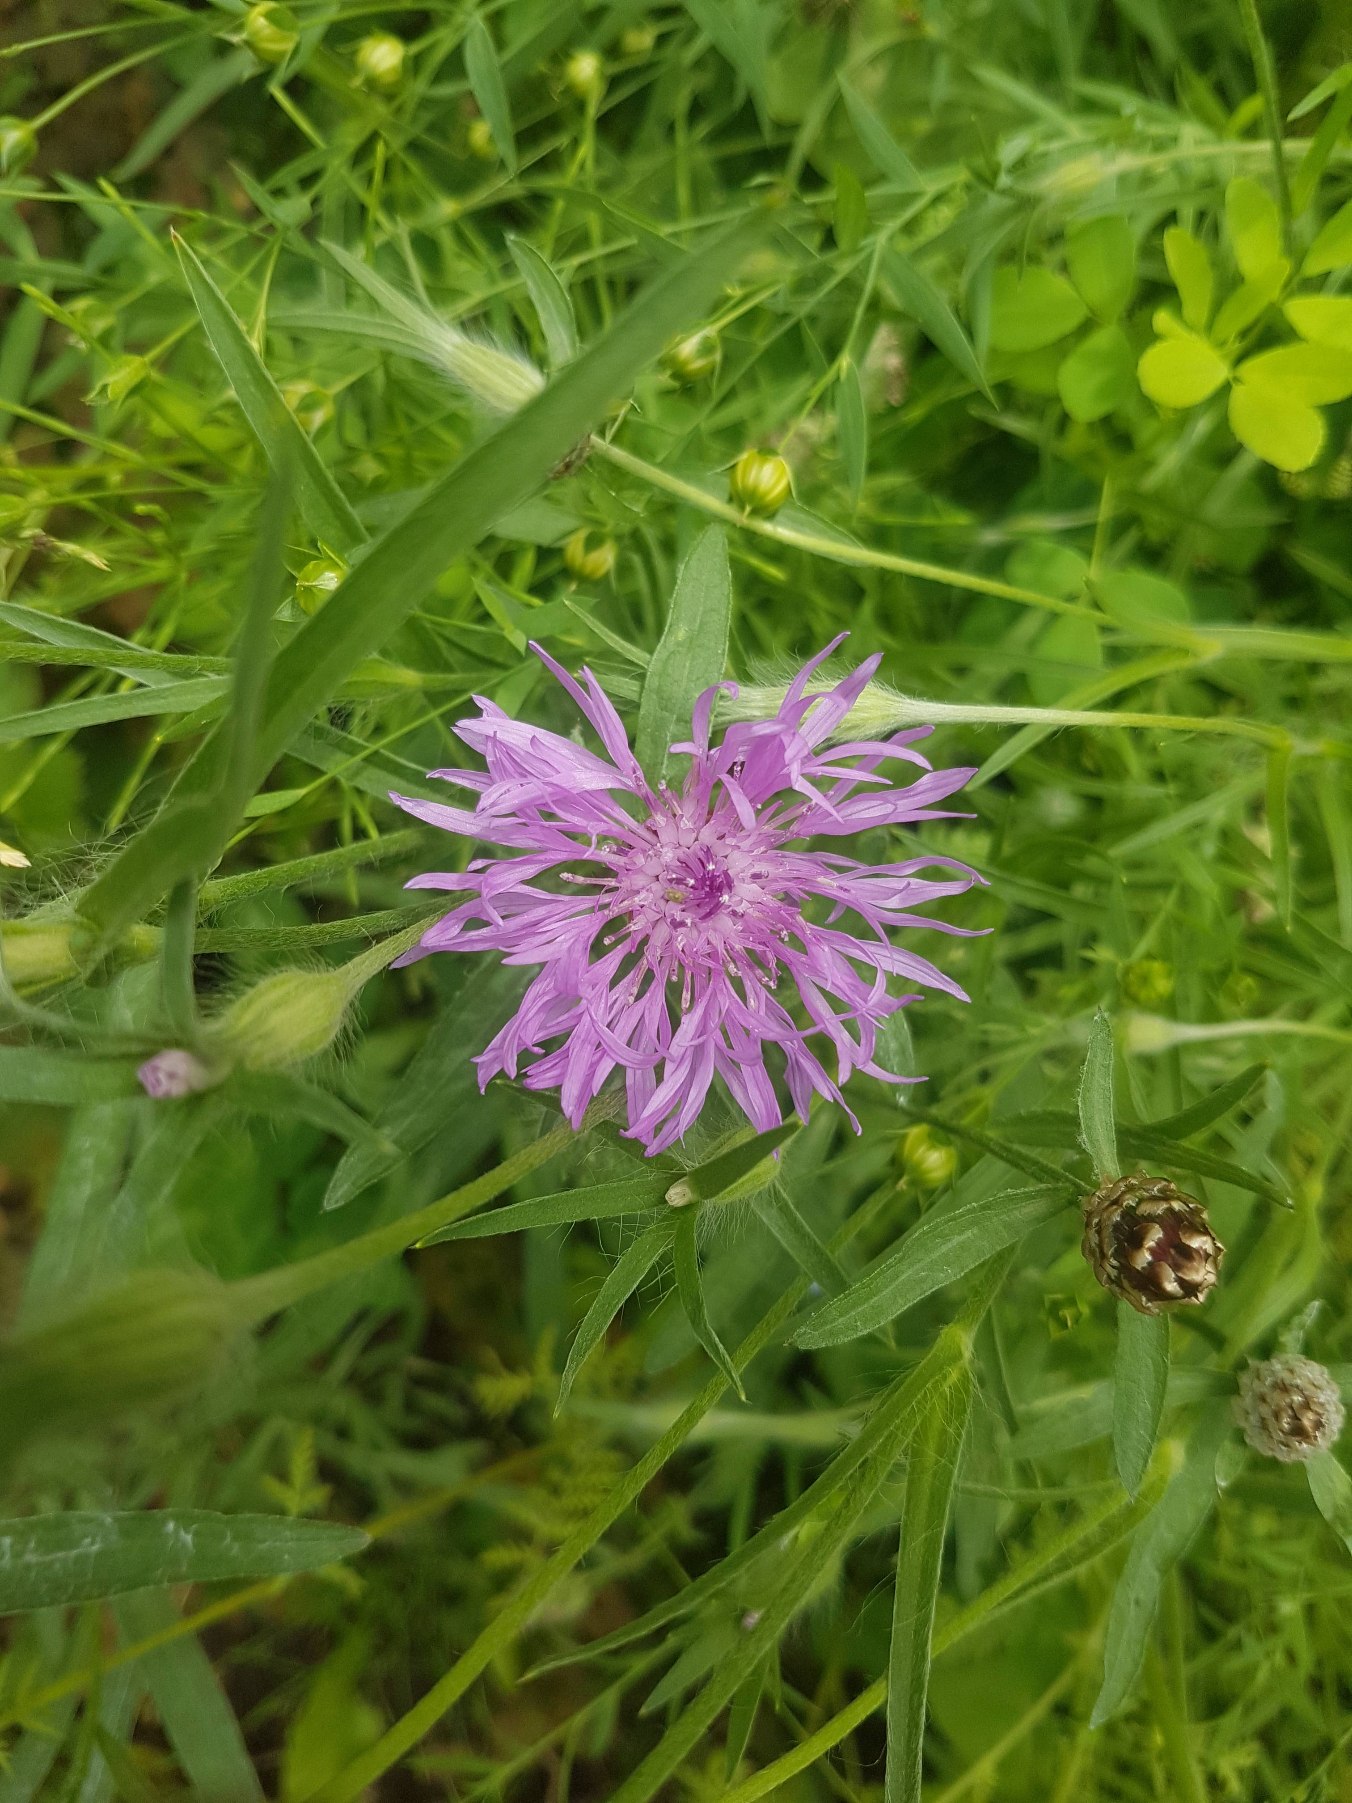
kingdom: Plantae
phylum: Tracheophyta
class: Magnoliopsida
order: Asterales
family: Asteraceae
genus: Centaurea
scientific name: Centaurea jacea
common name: Almindelig knopurt
